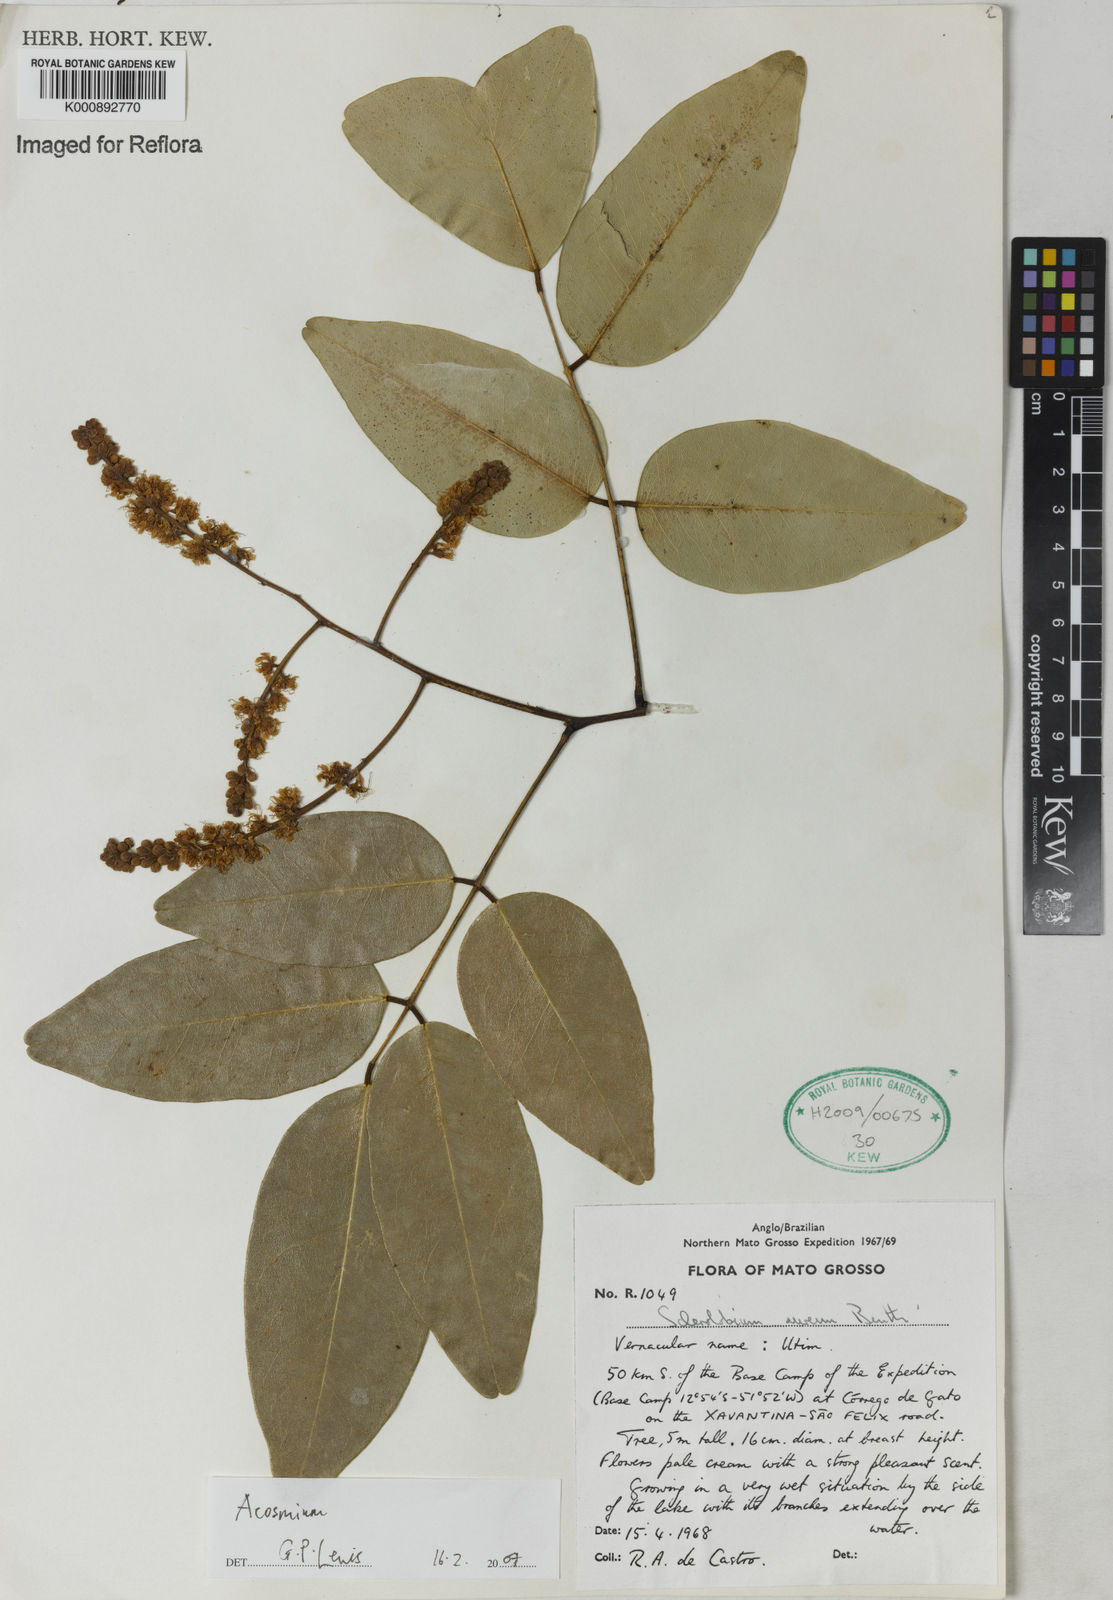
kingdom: Plantae
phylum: Tracheophyta
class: Magnoliopsida
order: Fabales
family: Fabaceae
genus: Leptolobium
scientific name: Leptolobium
